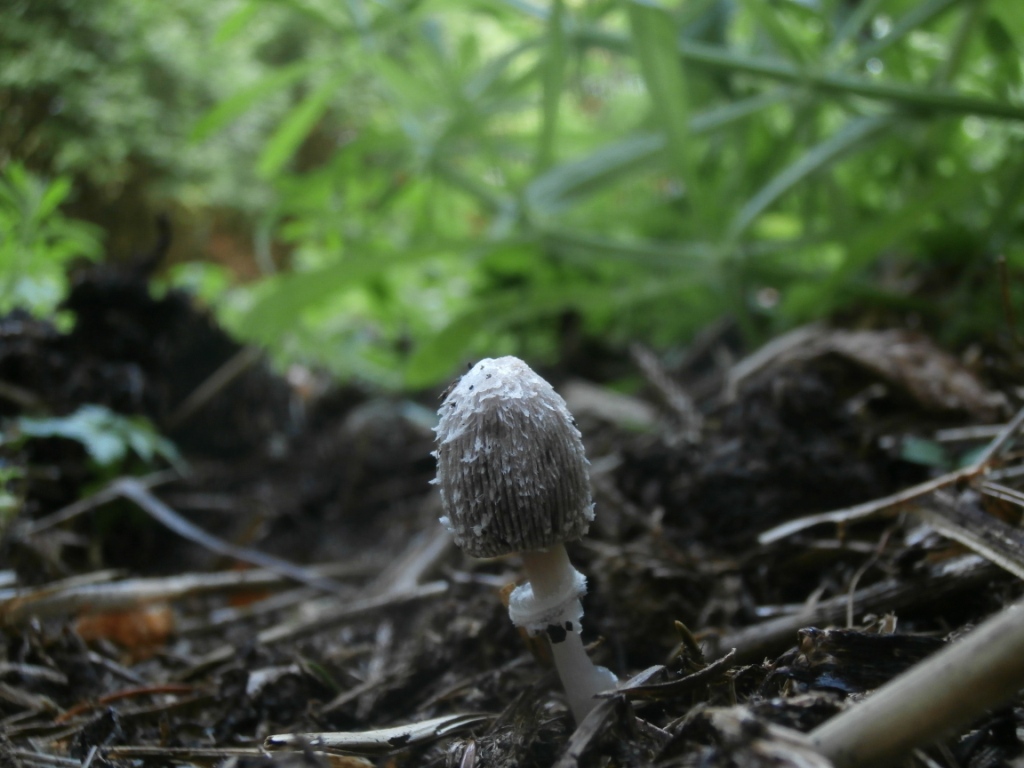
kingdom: Fungi
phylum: Basidiomycota
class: Agaricomycetes
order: Agaricales
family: Agaricaceae
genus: Coprinus
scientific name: Coprinus sterquilinus
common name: møg-parykhat
